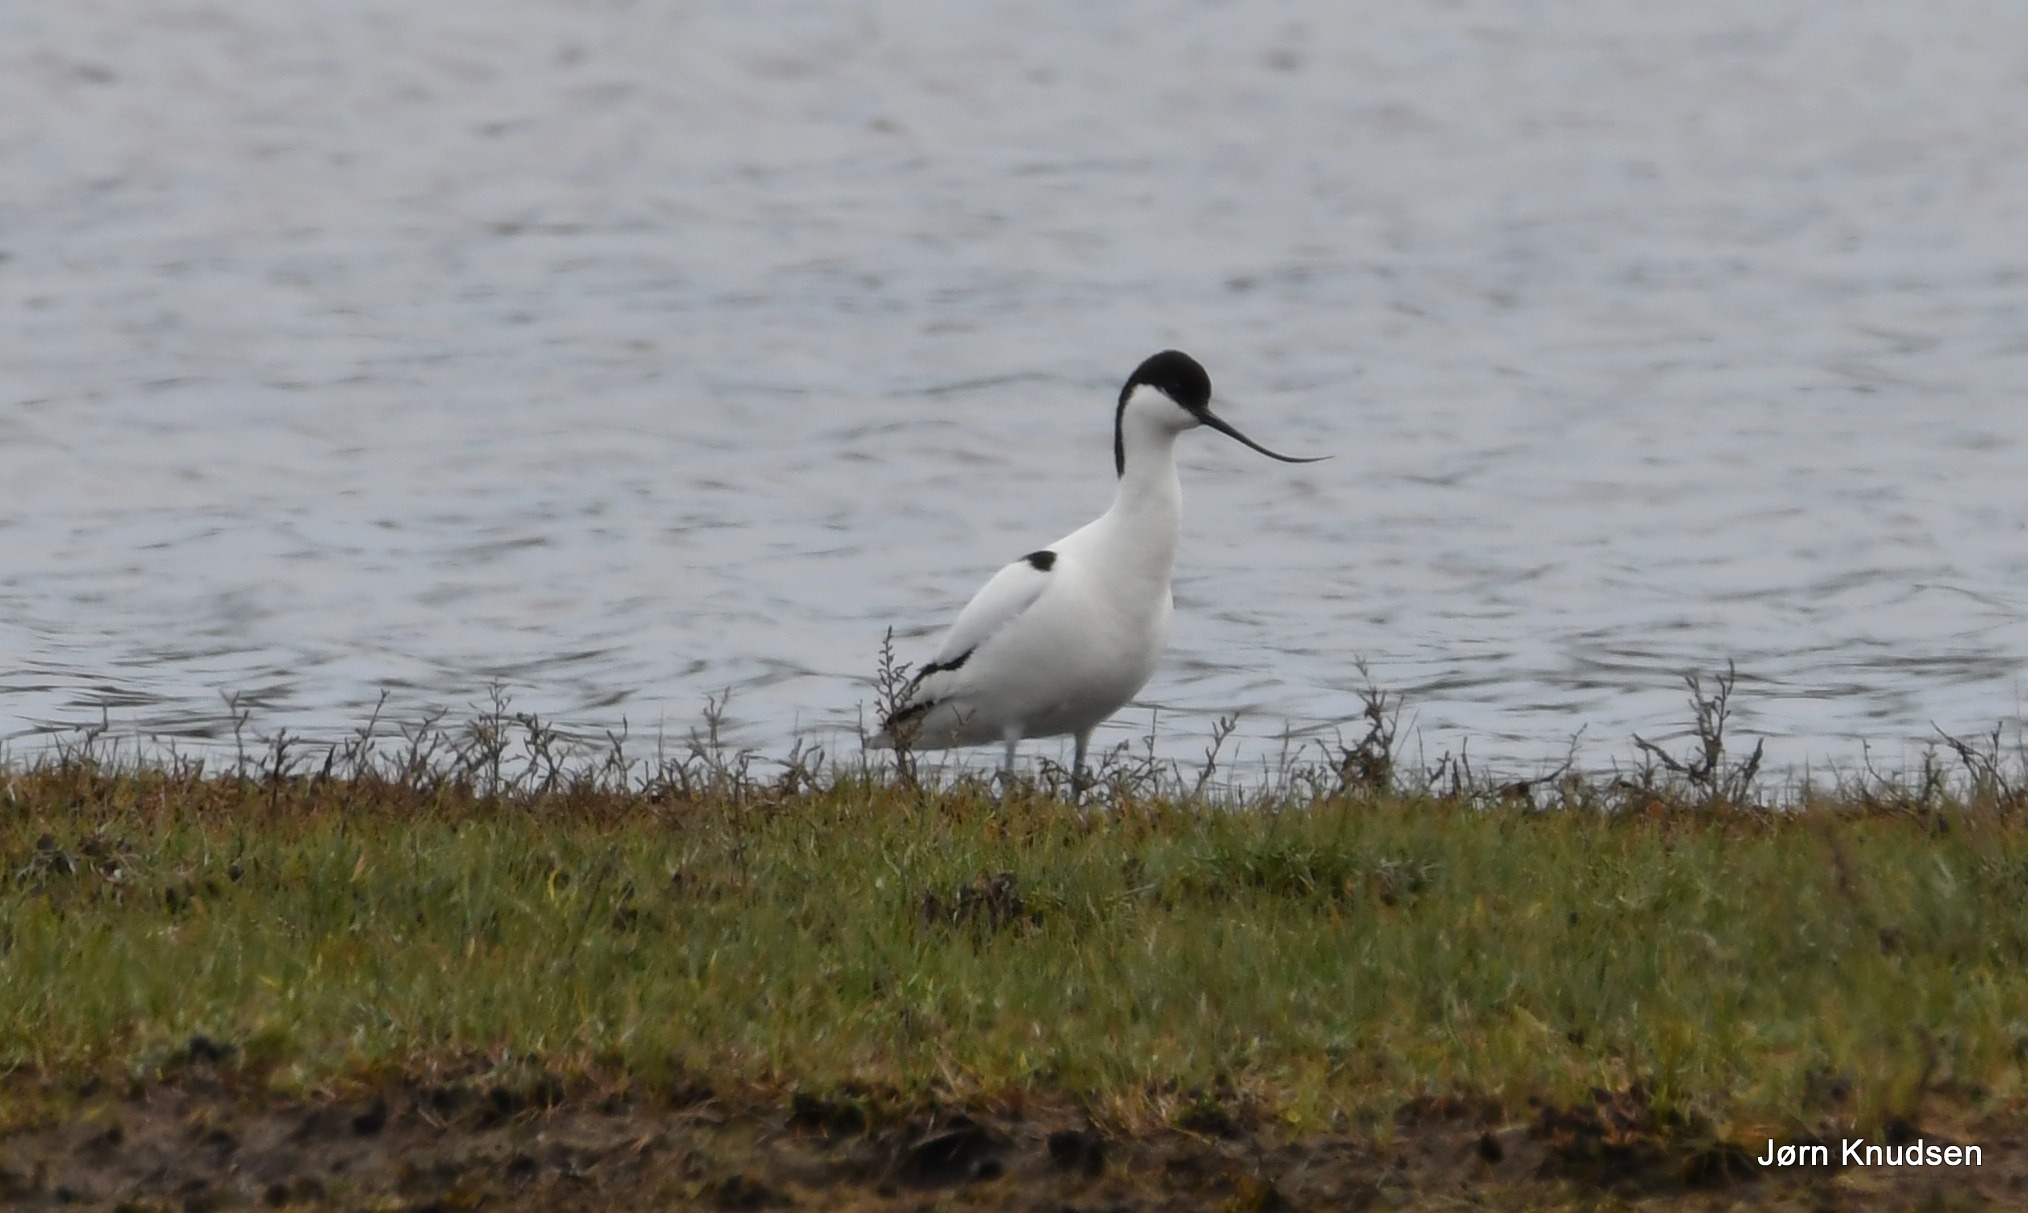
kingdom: Animalia
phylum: Chordata
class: Aves
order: Charadriiformes
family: Recurvirostridae
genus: Recurvirostra
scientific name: Recurvirostra avosetta
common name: Klyde
